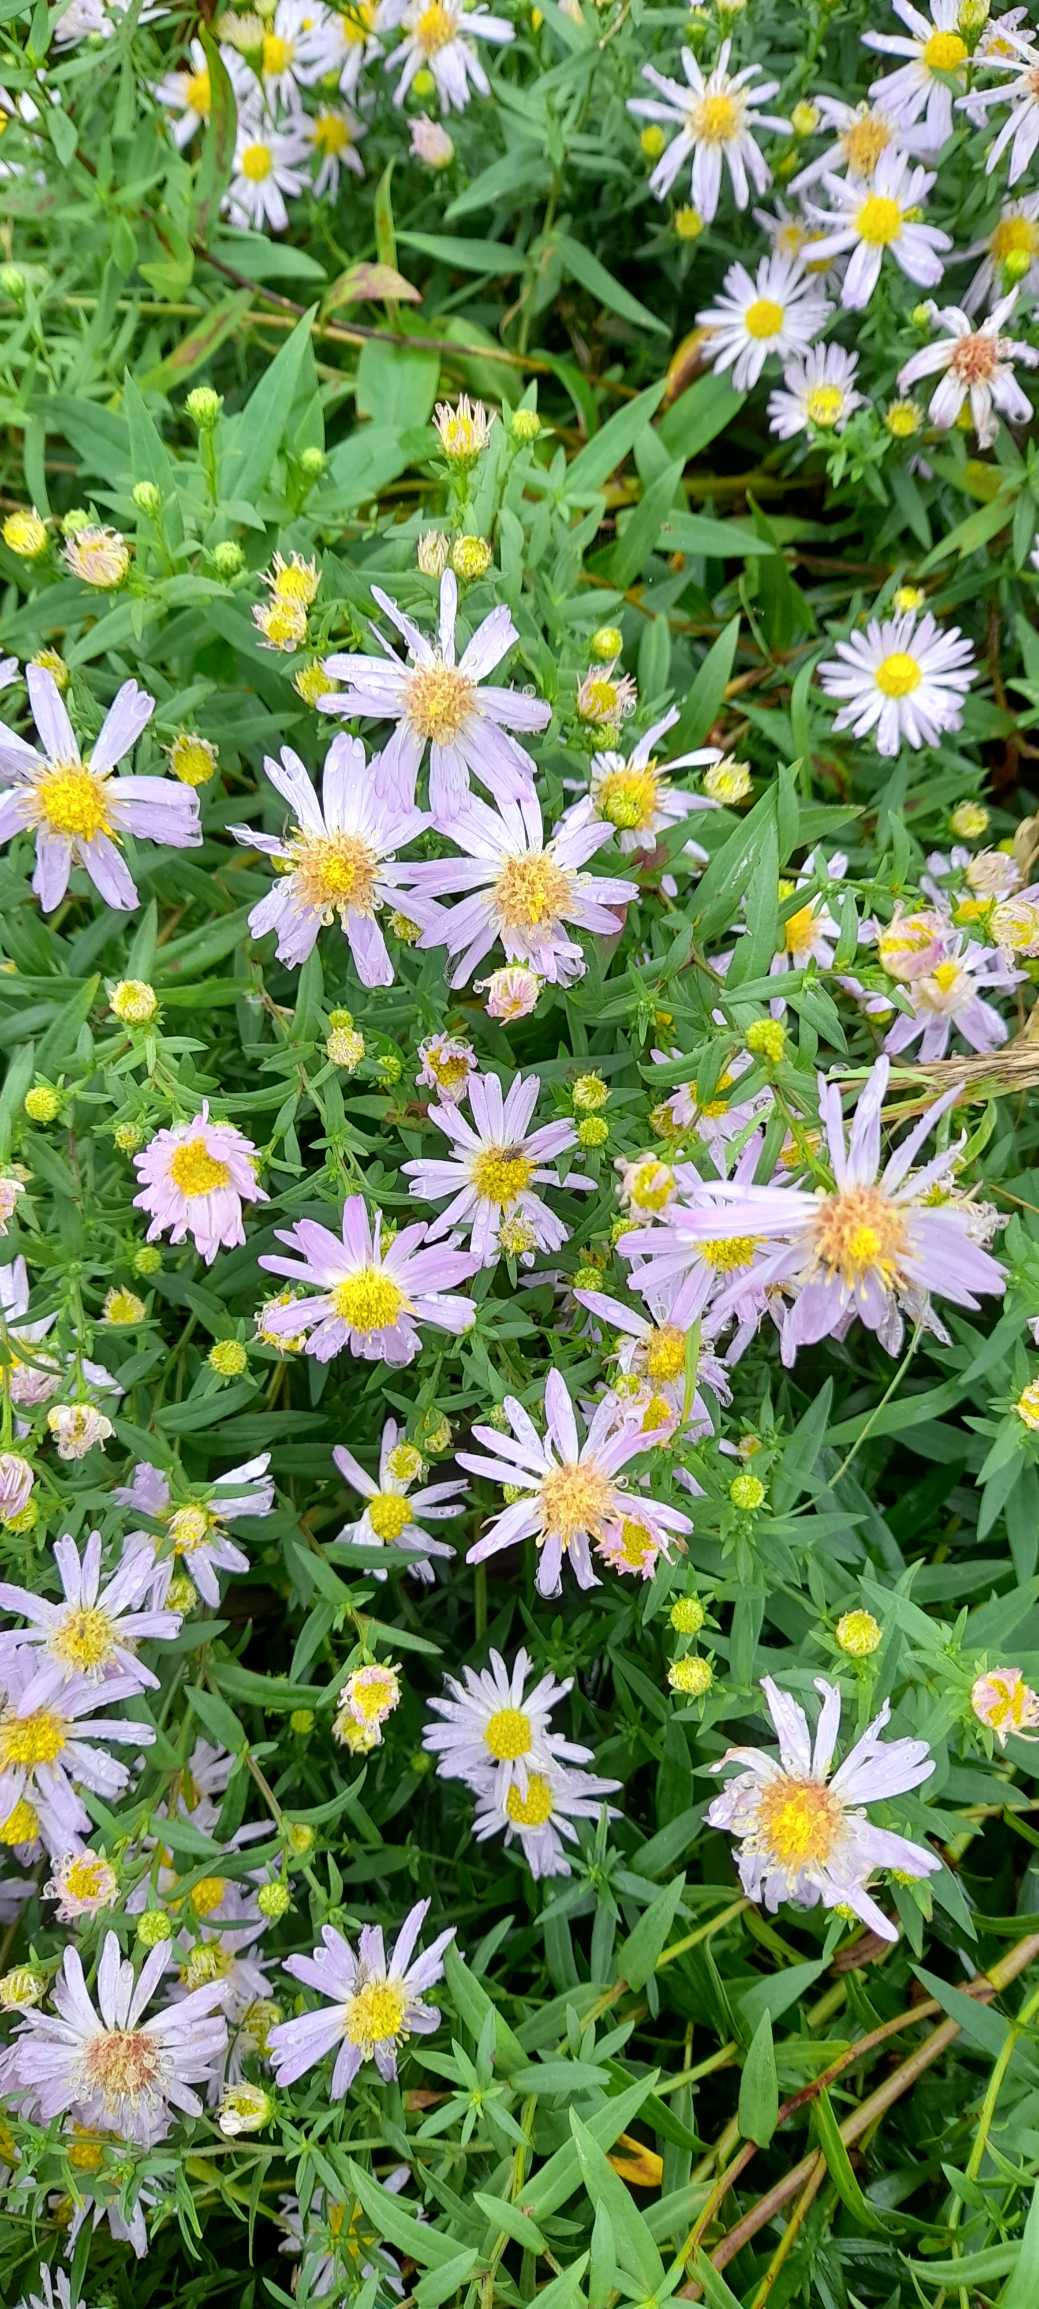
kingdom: Plantae
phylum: Tracheophyta
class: Magnoliopsida
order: Asterales
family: Asteraceae
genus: Symphyotrichum
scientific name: Symphyotrichum
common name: Asters (Symphyotrichum-slægten)
